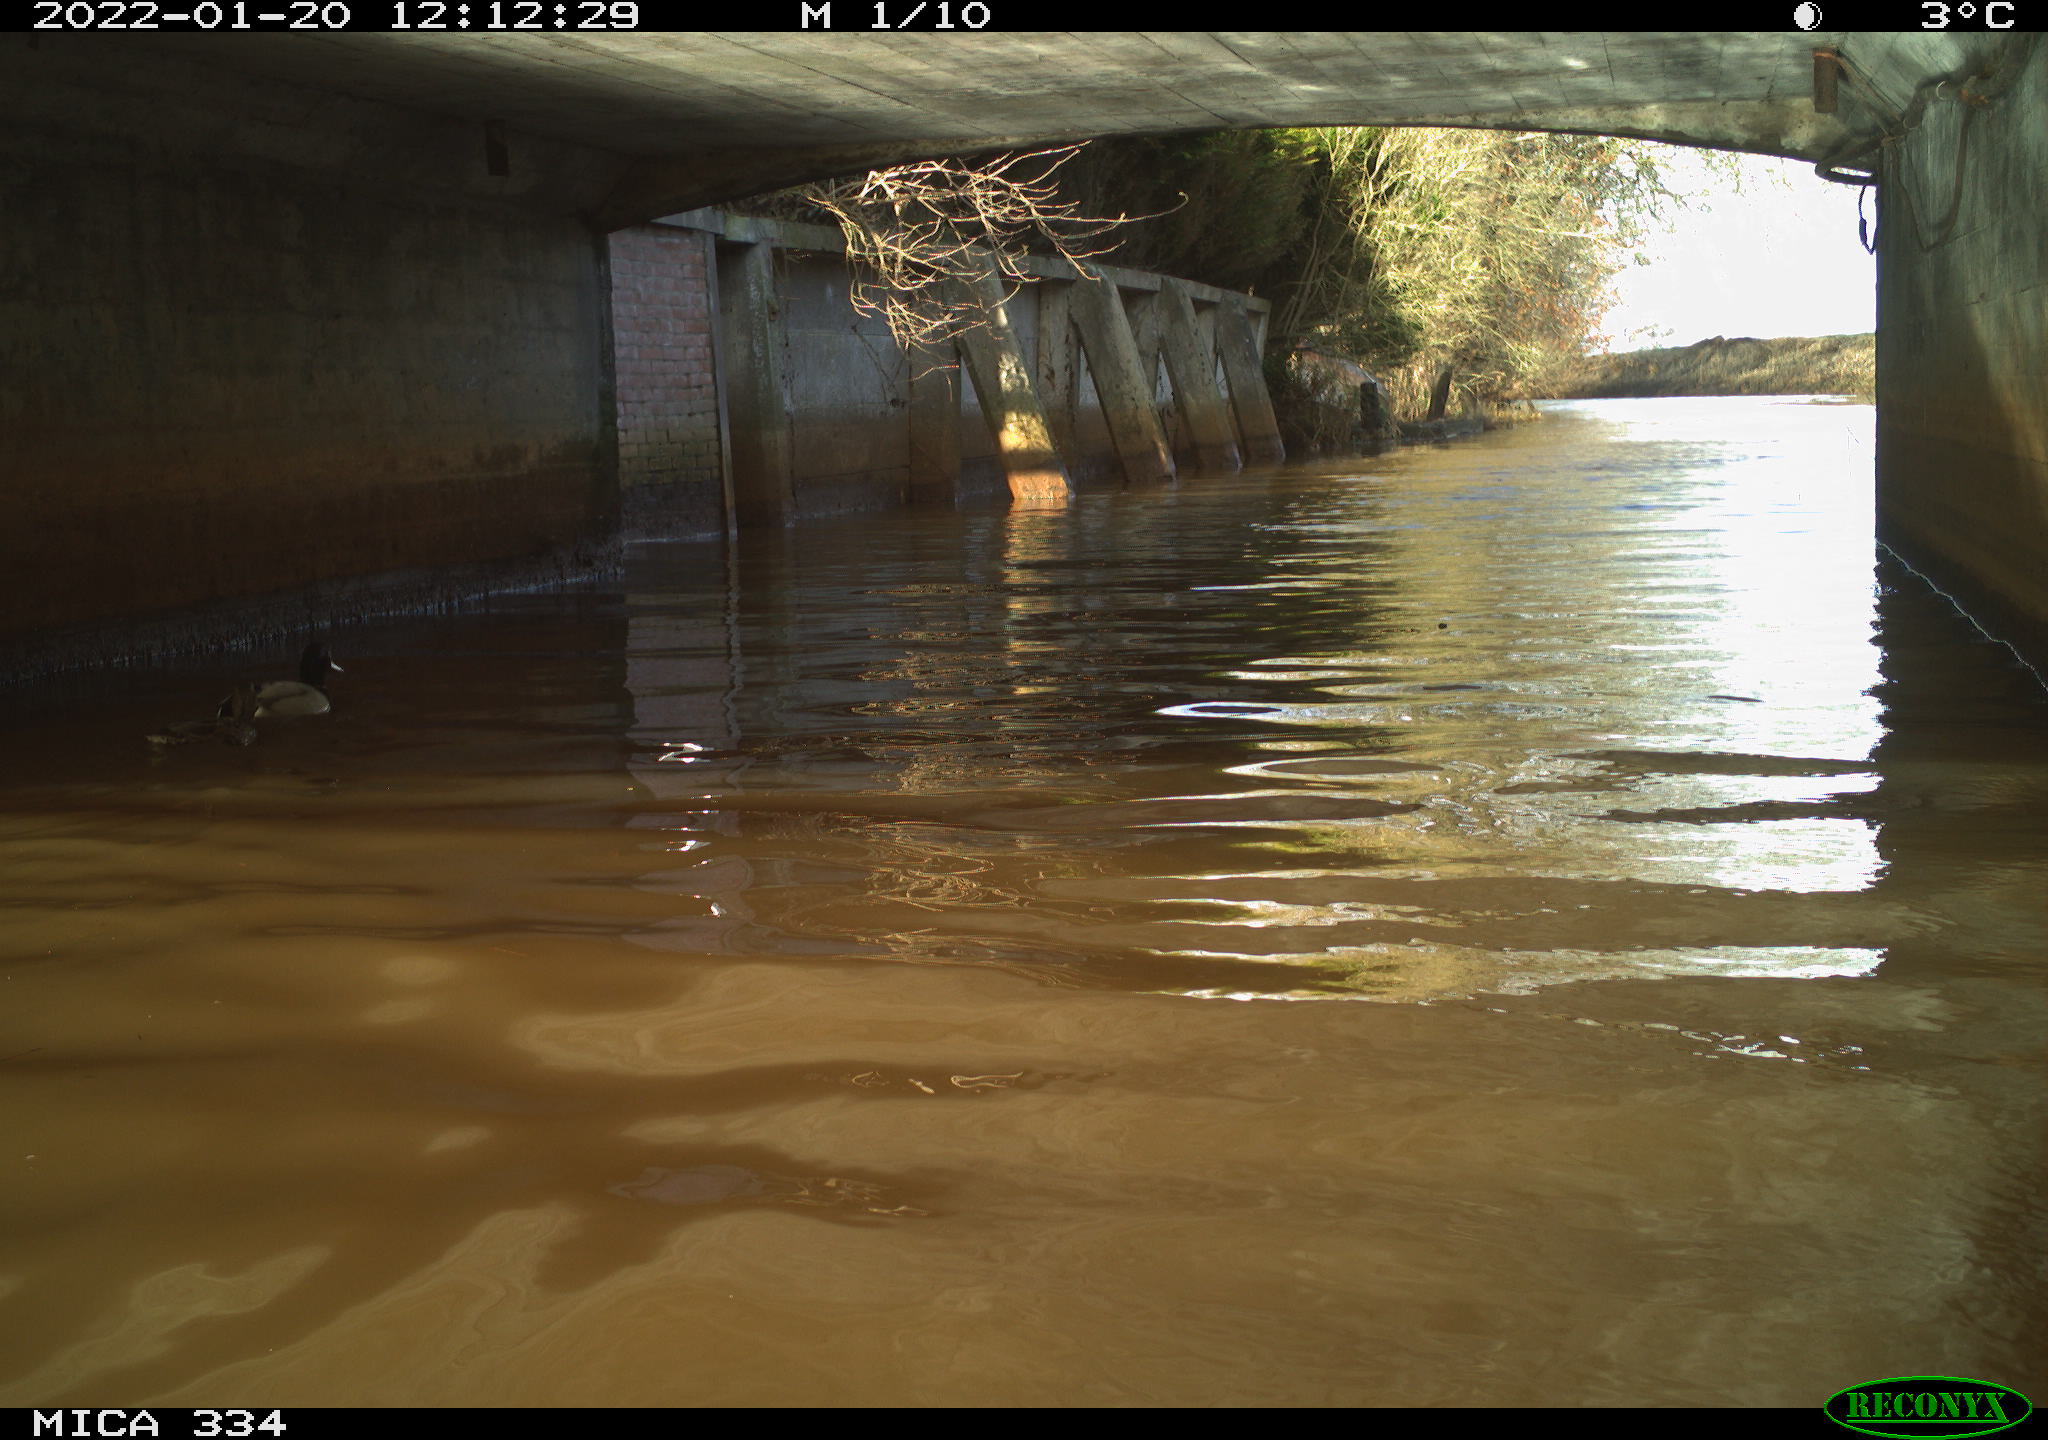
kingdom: Animalia
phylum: Chordata
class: Aves
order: Anseriformes
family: Anatidae
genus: Anas
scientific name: Anas platyrhynchos
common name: Mallard
